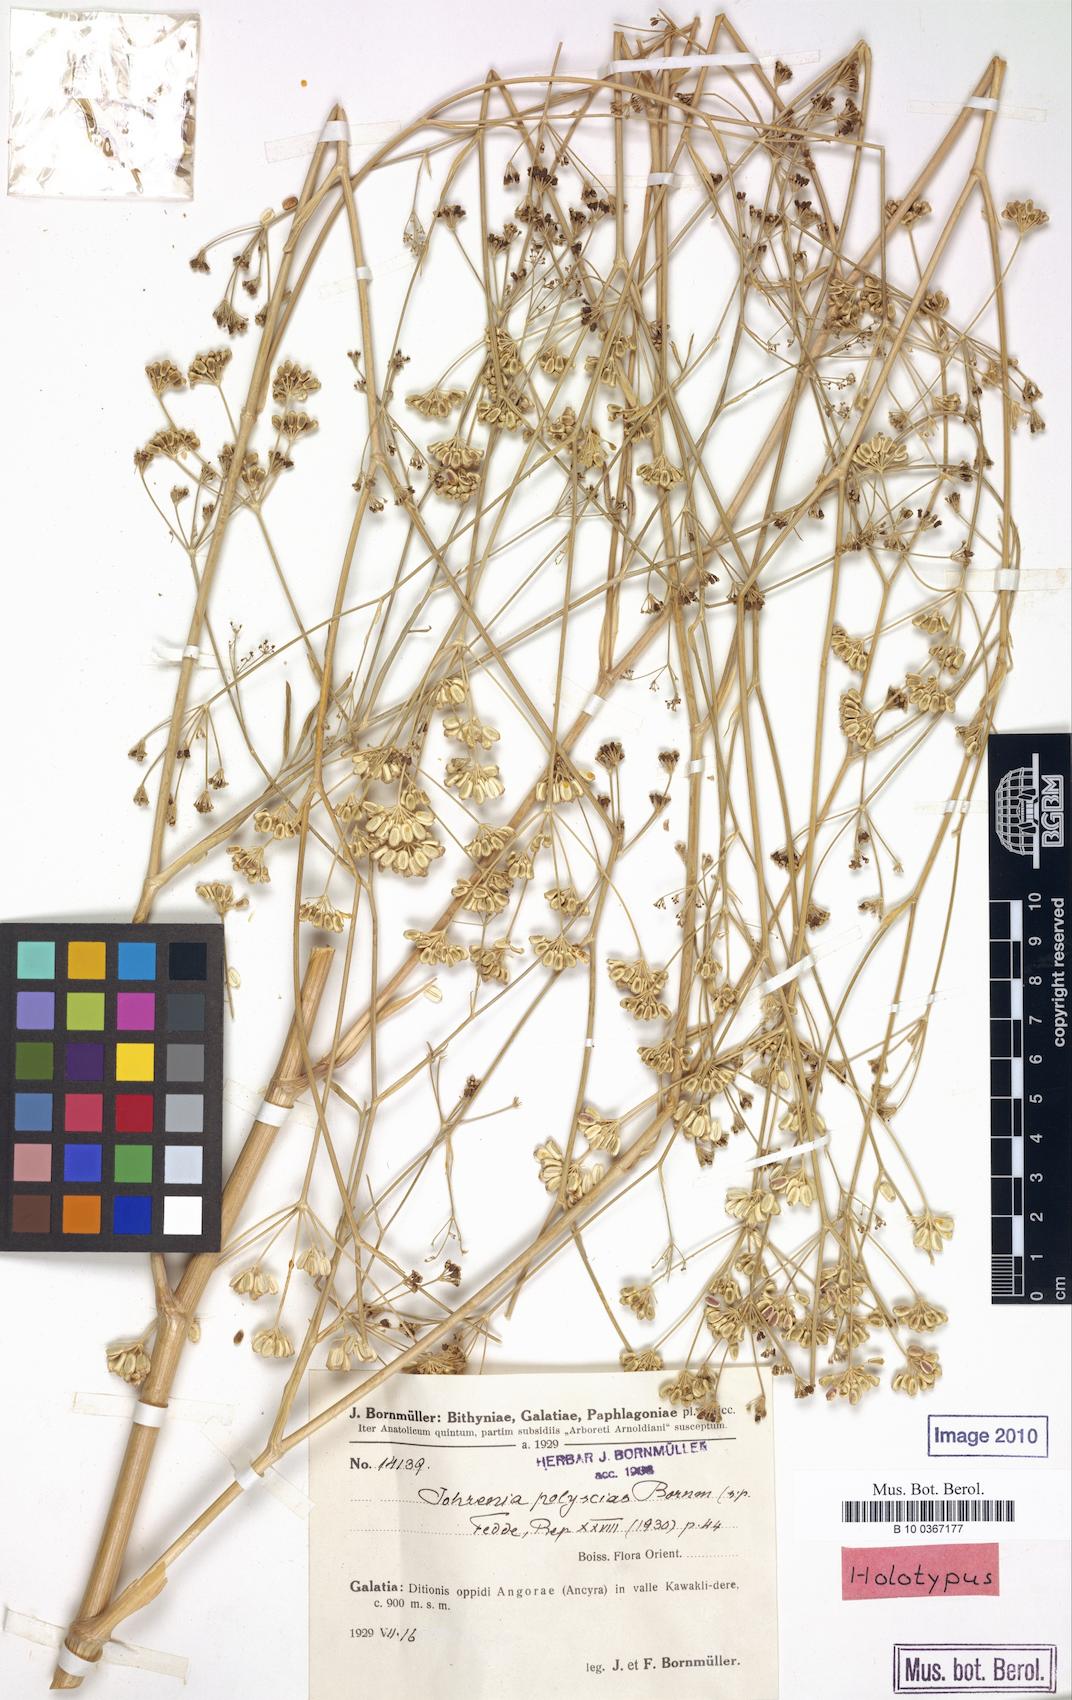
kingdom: Plantae
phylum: Tracheophyta
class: Magnoliopsida
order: Apiales
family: Apiaceae
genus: Johrenia
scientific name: Johrenia polyscias
